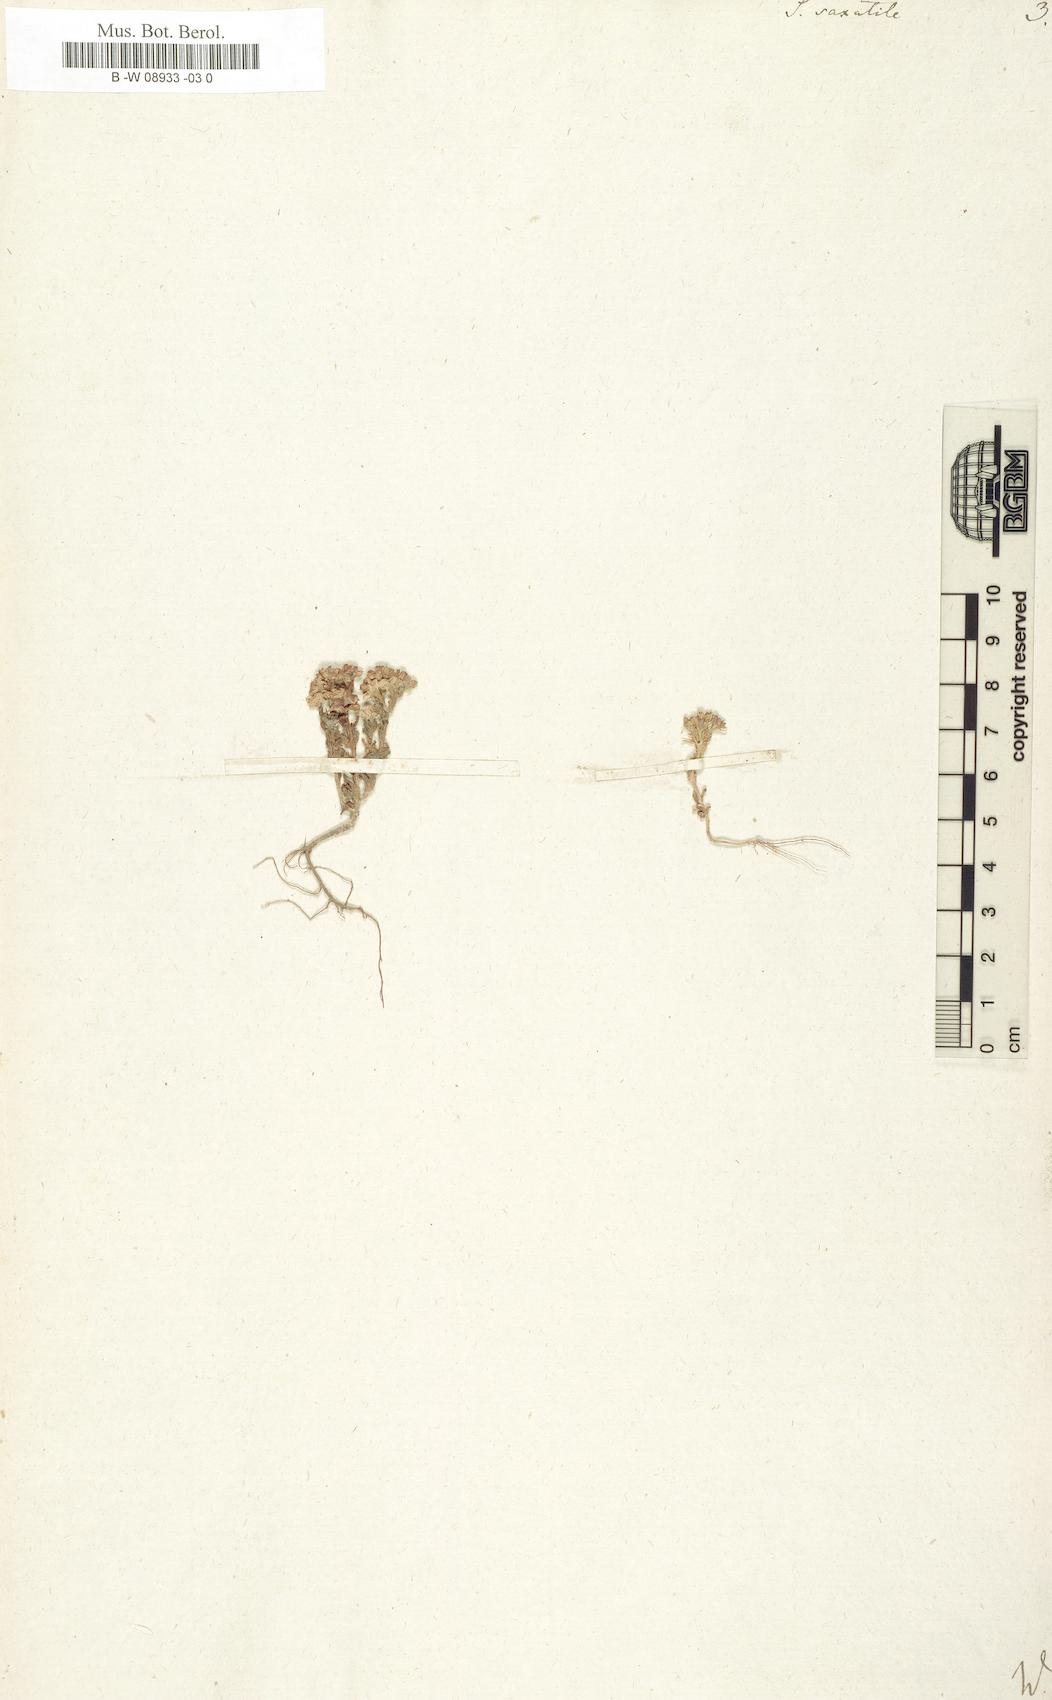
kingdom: Plantae
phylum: Tracheophyta
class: Magnoliopsida
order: Saxifragales
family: Crassulaceae
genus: Sedum
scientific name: Sedum
